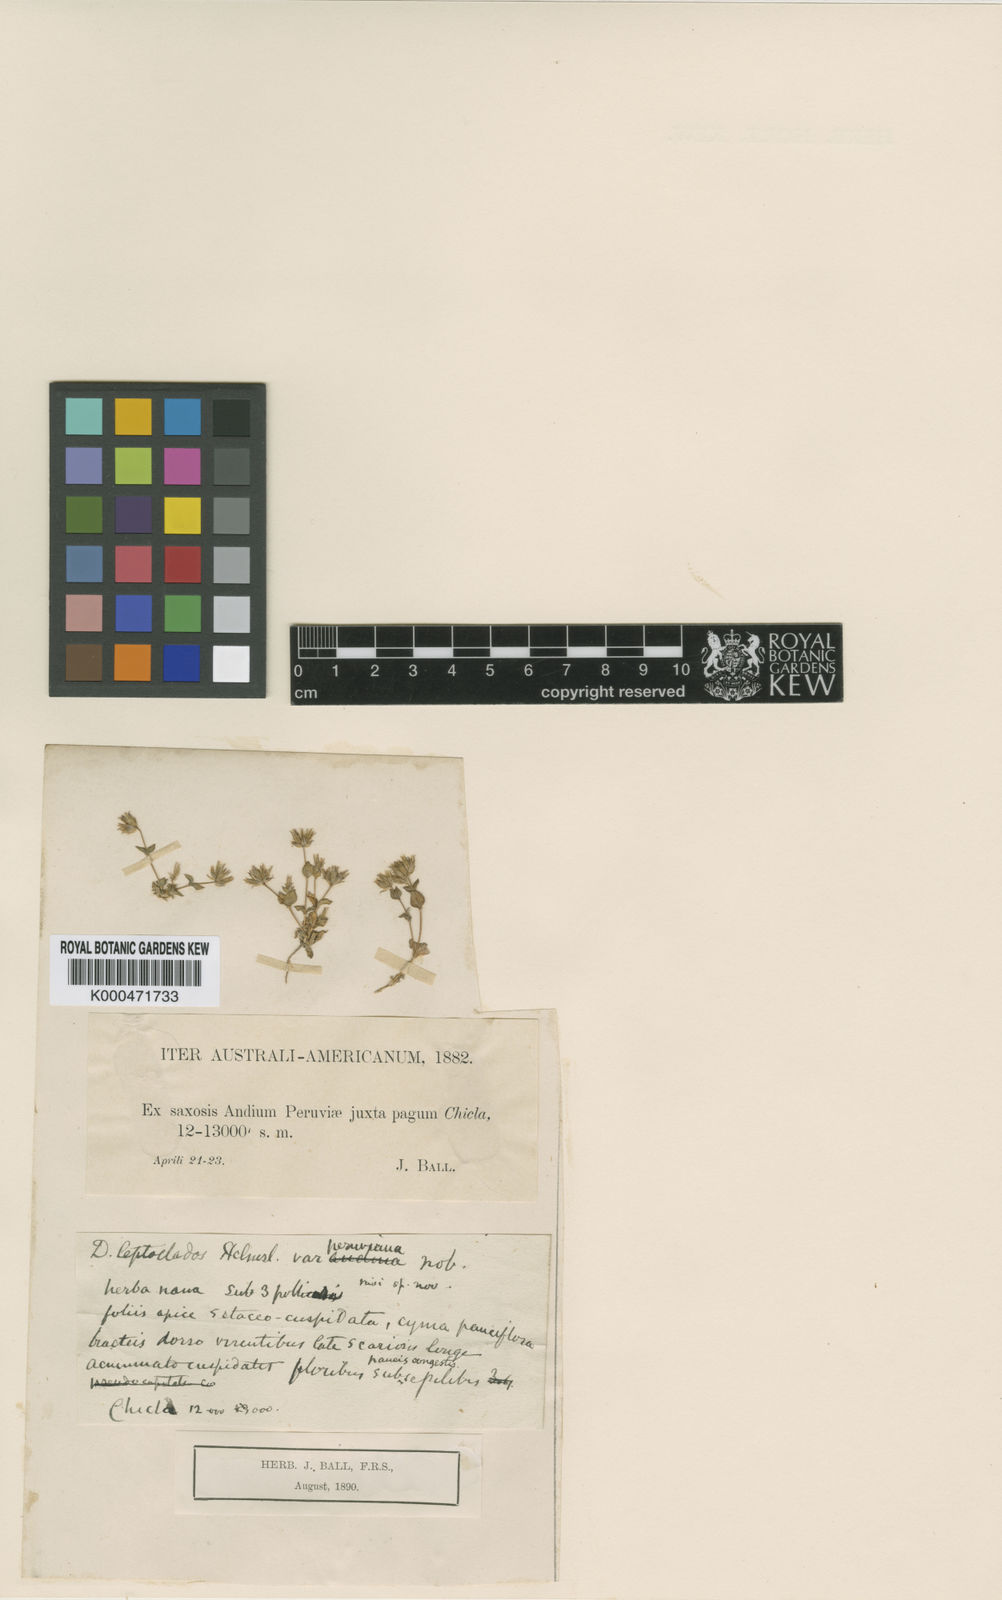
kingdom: Plantae
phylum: Tracheophyta
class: Magnoliopsida
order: Caryophyllales
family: Caryophyllaceae
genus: Drymaria
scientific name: Drymaria glandulosa
